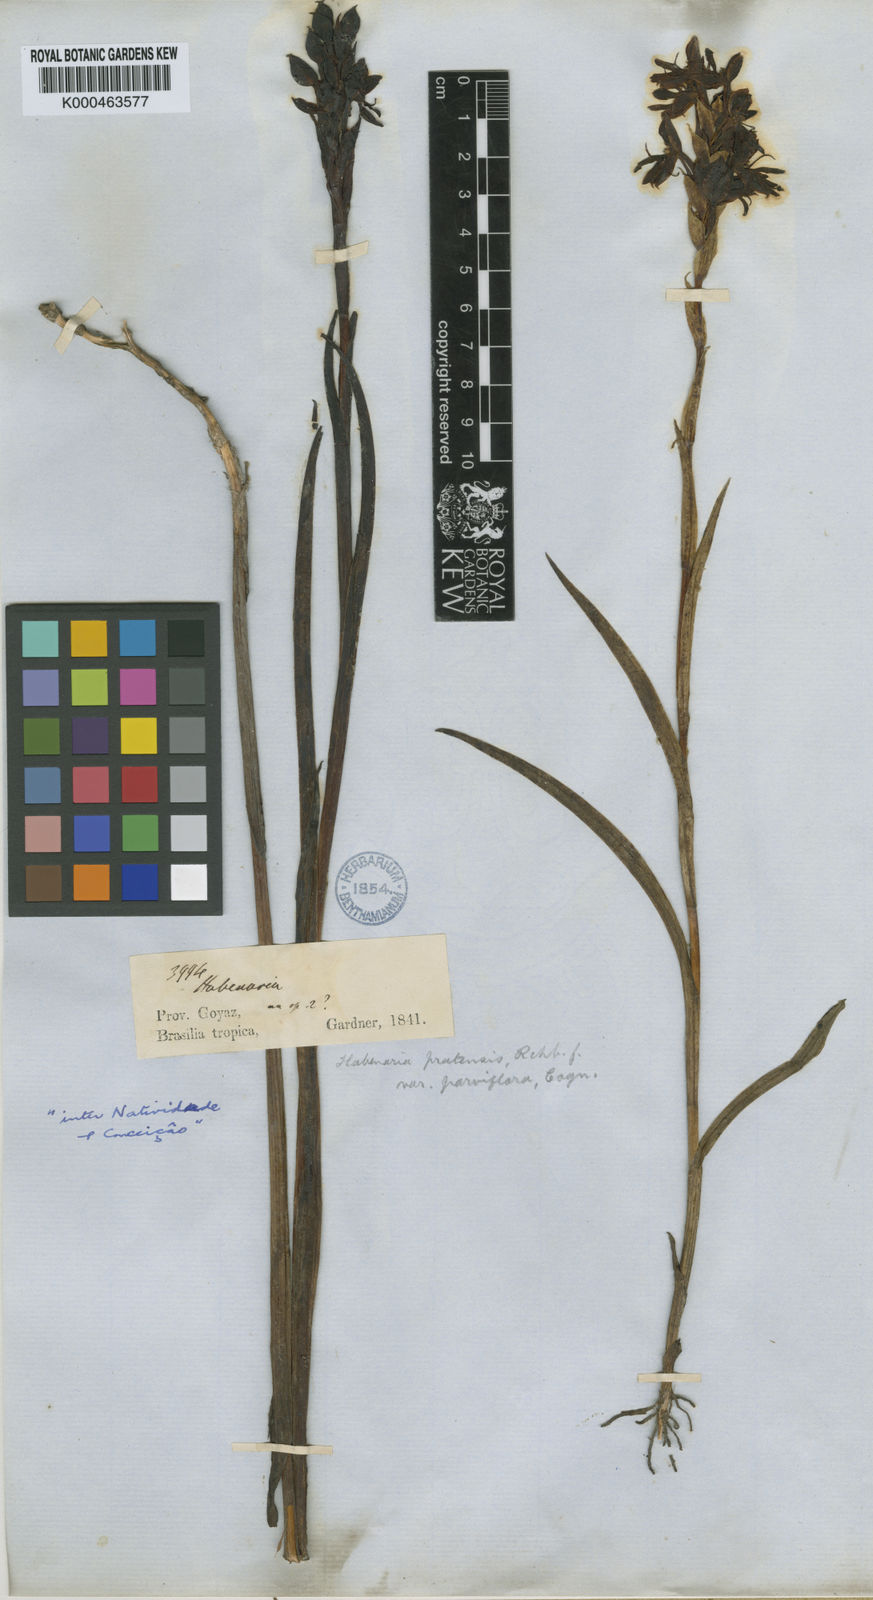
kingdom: Plantae
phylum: Tracheophyta
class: Liliopsida
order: Asparagales
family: Orchidaceae
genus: Habenaria
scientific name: Habenaria spathulifera
